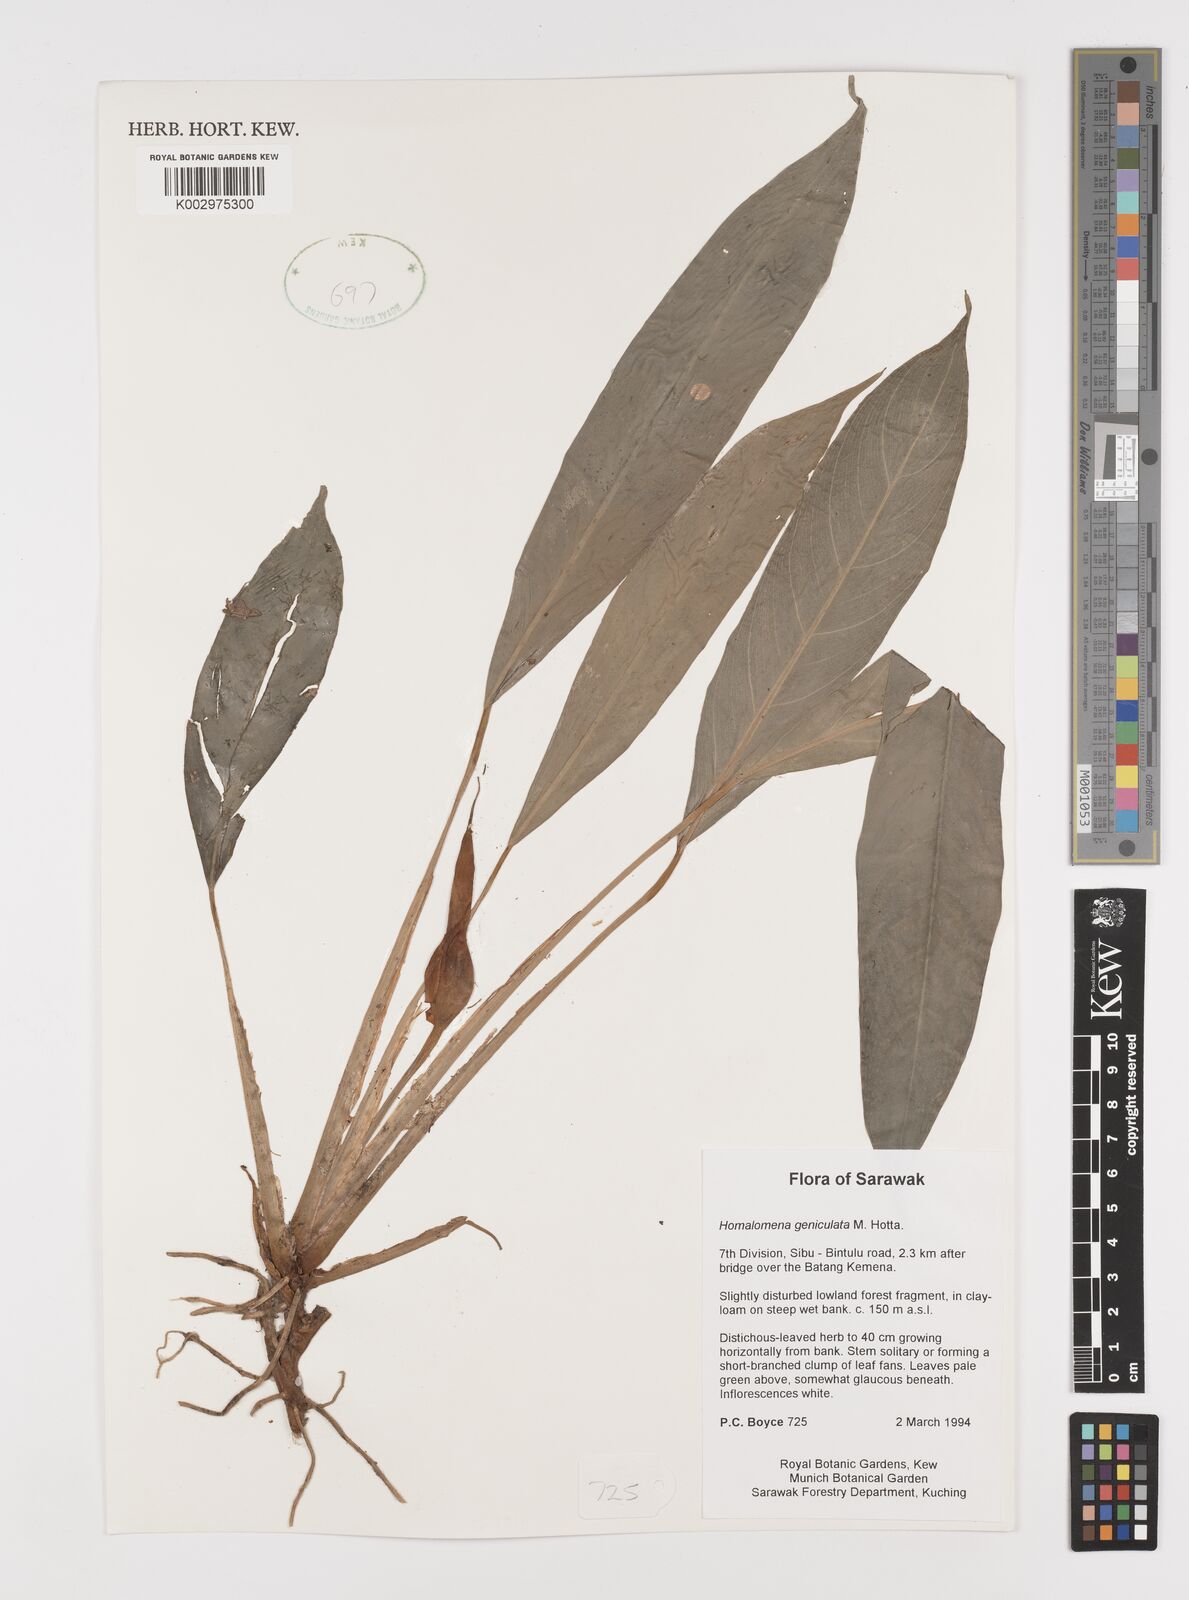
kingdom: Plantae
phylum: Tracheophyta
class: Liliopsida
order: Alismatales
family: Araceae
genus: Homalomena
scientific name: Homalomena punctulata
